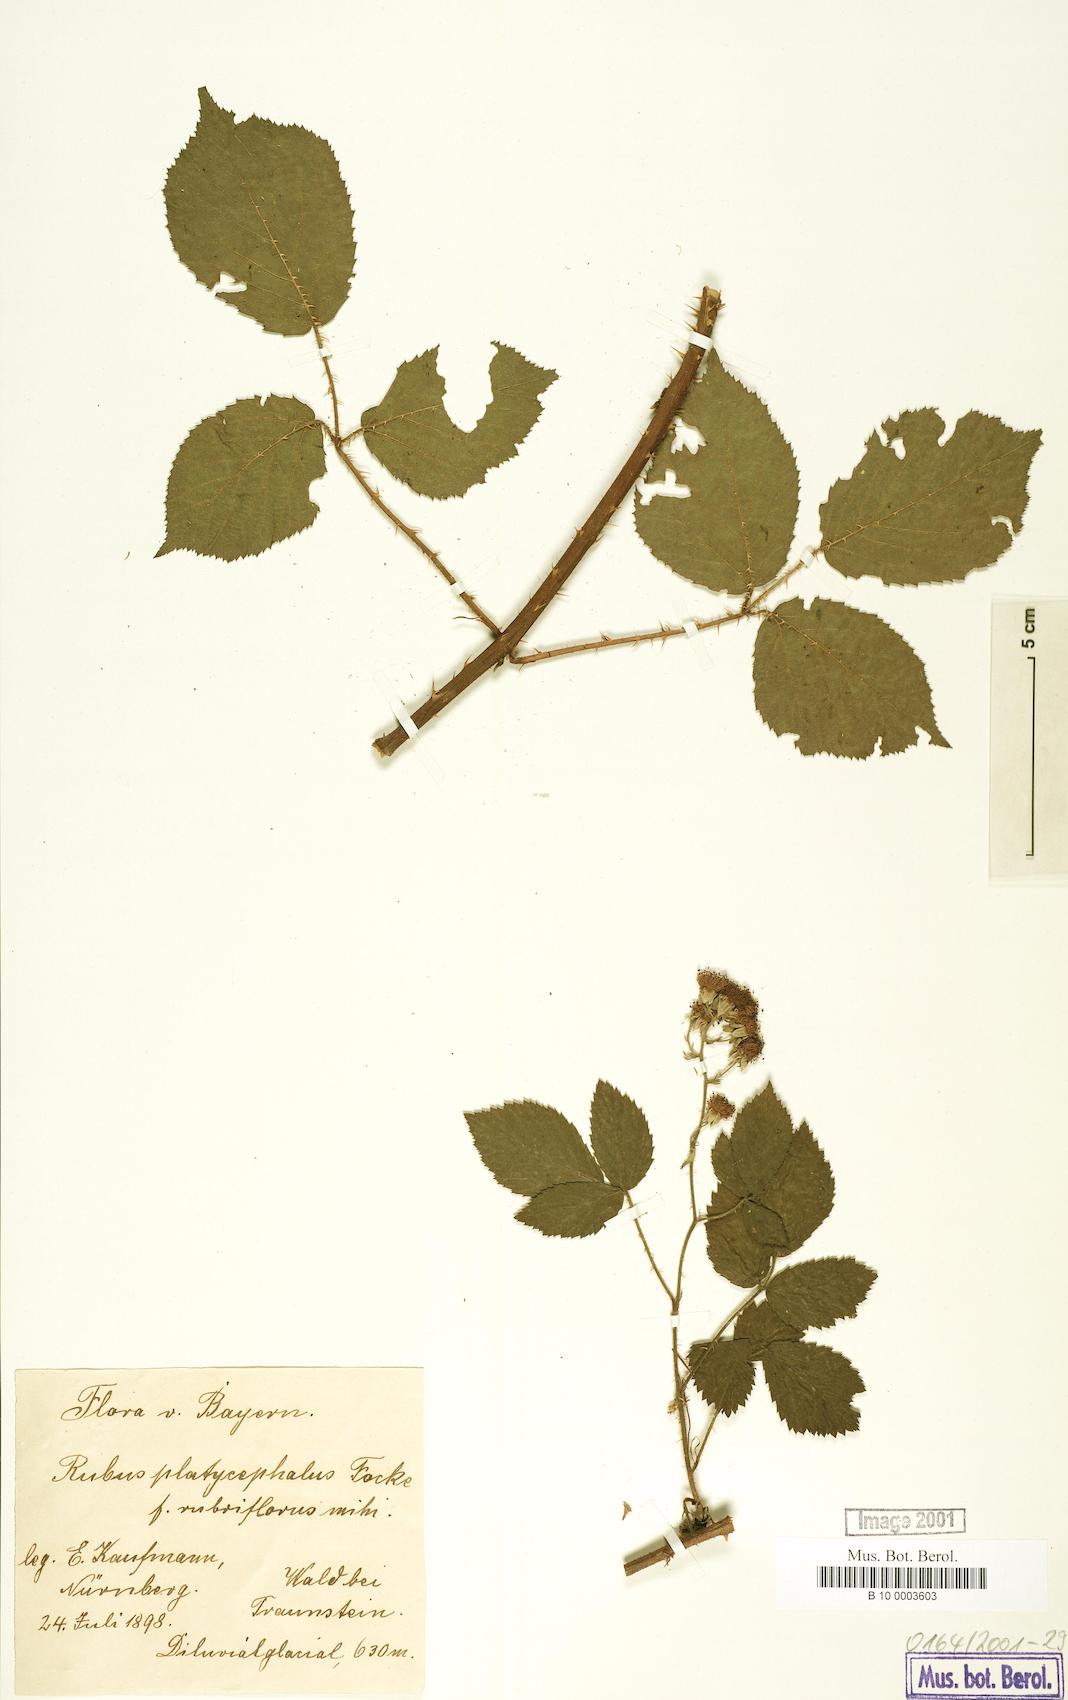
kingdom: Plantae
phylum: Tracheophyta
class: Magnoliopsida
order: Rosales
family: Rosaceae
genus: Rubus
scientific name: Rubus platycephalus
